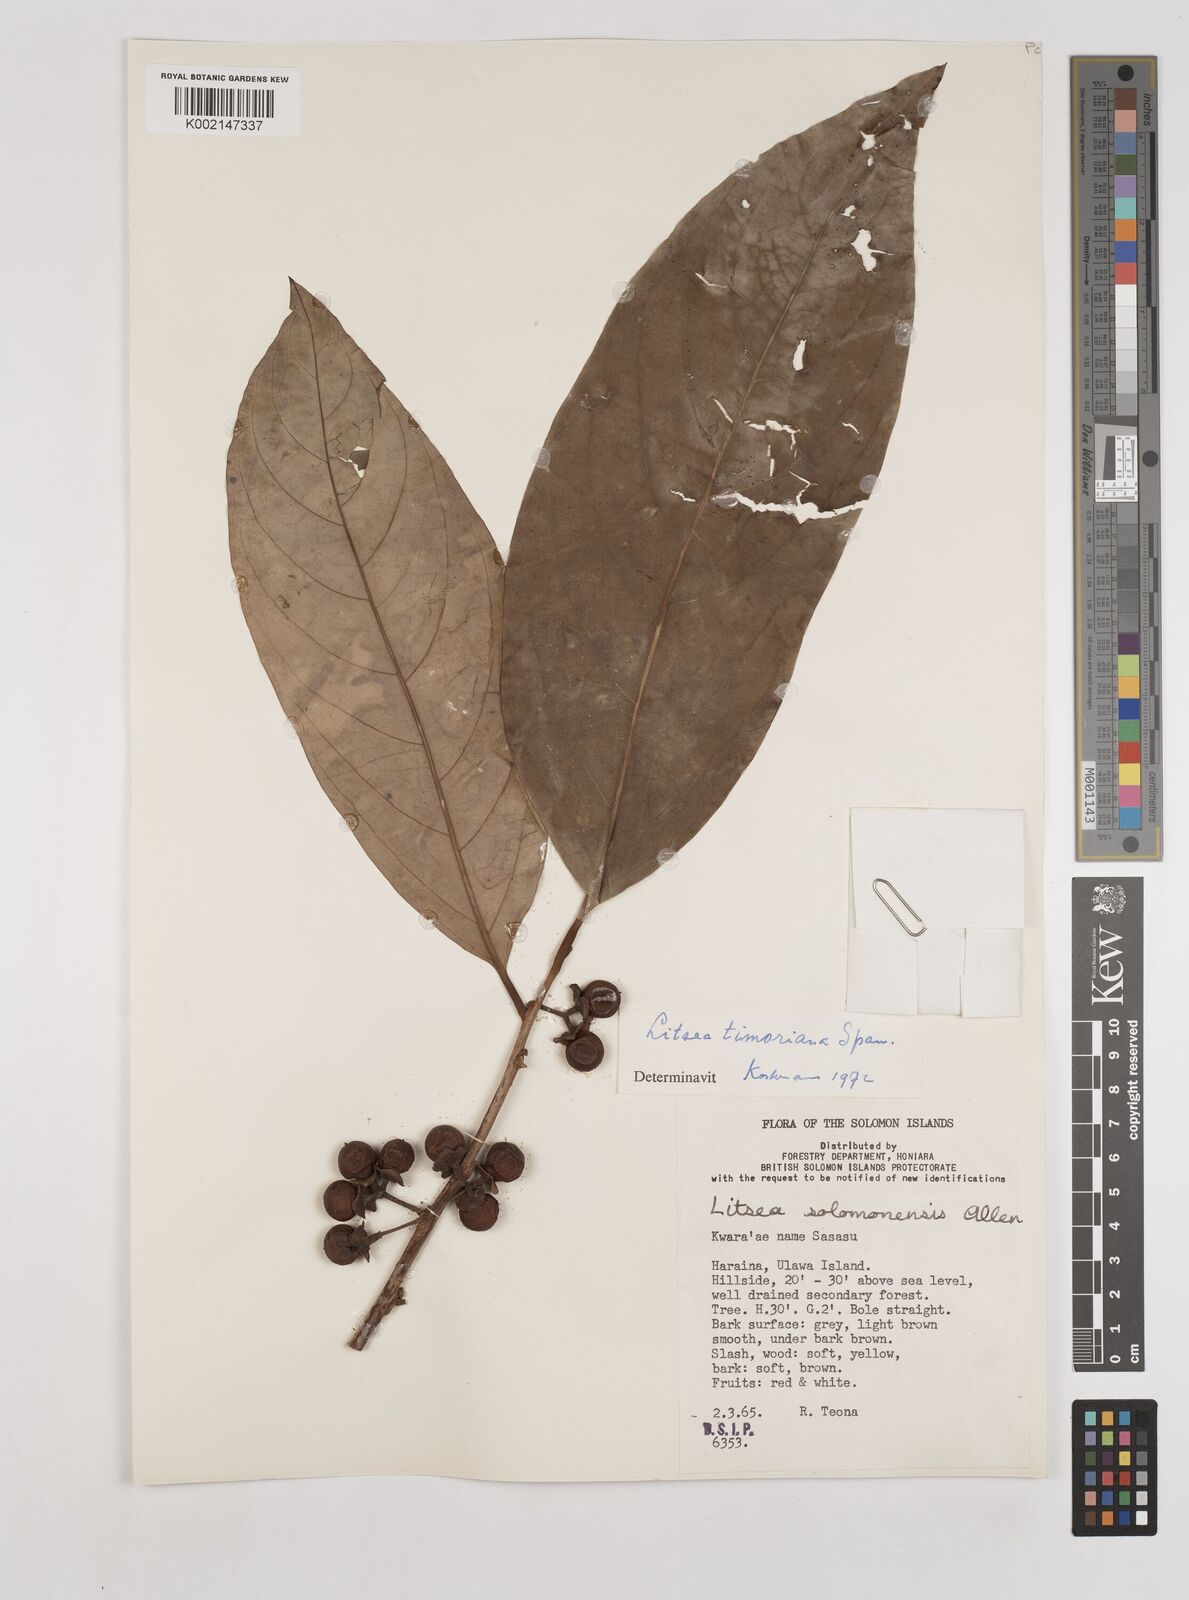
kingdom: Plantae
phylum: Tracheophyta
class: Magnoliopsida
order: Laurales
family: Lauraceae
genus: Litsea
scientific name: Litsea timoriana
